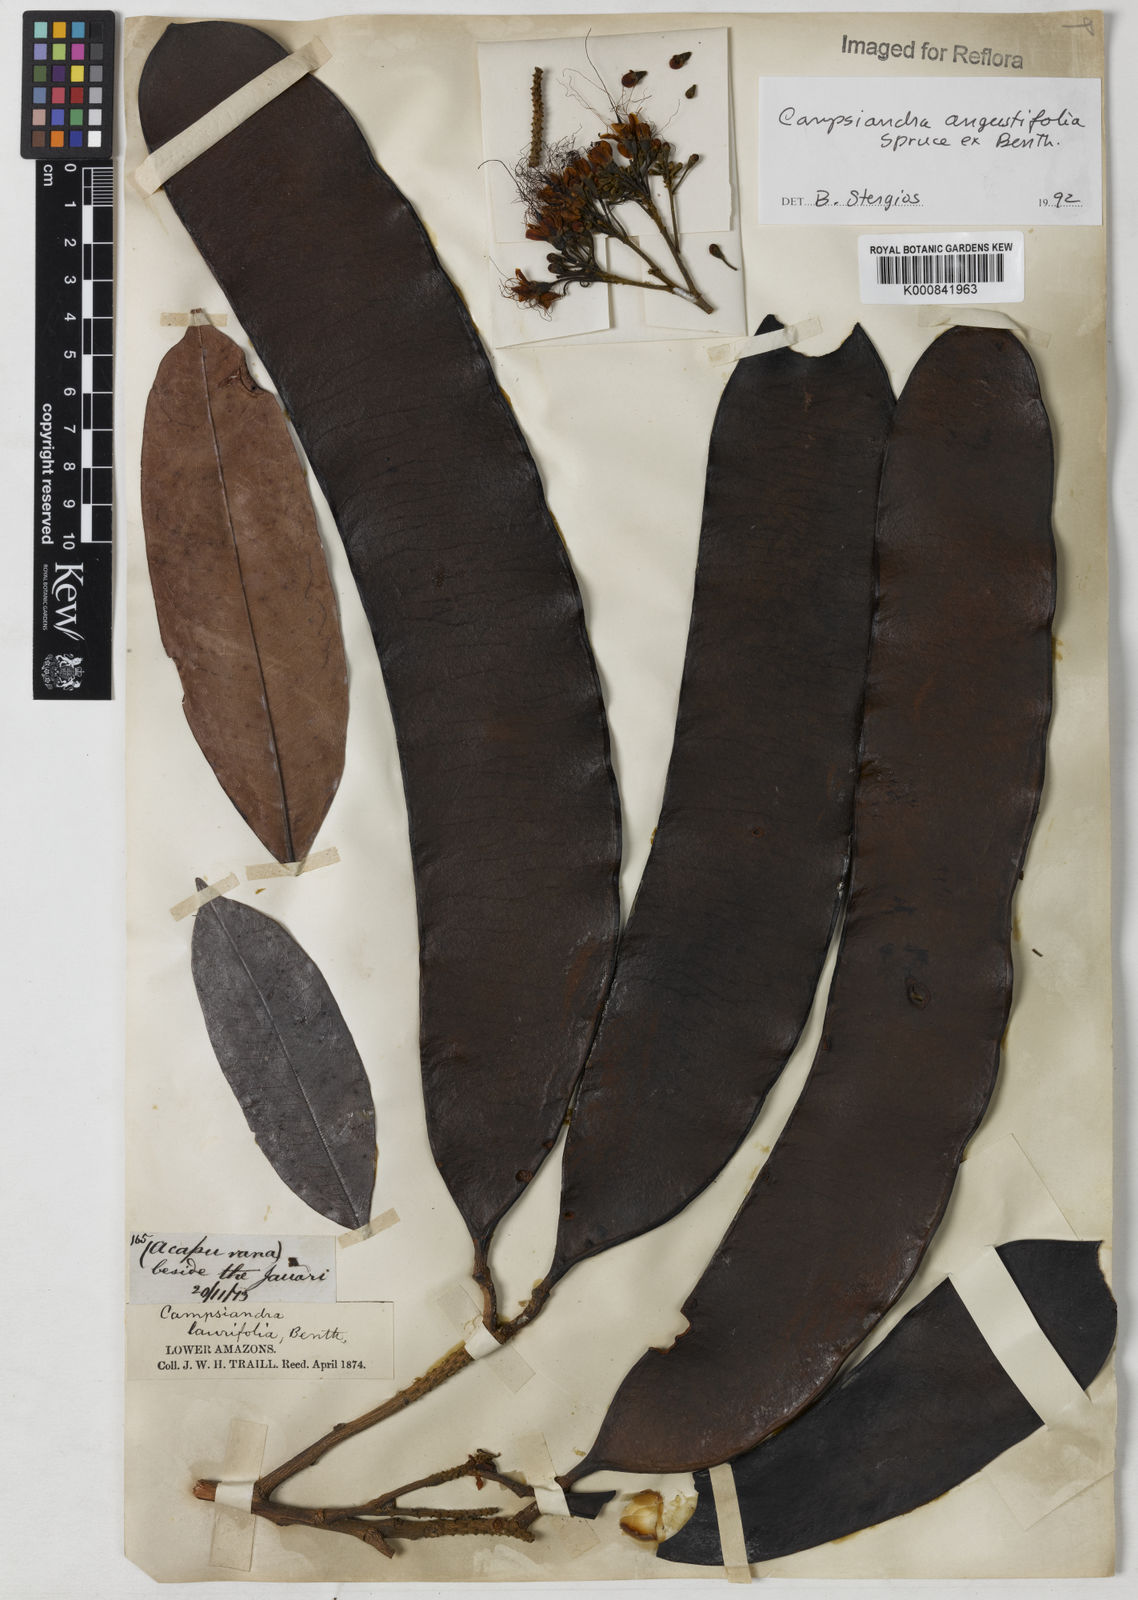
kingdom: Plantae
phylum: Tracheophyta
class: Magnoliopsida
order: Fabales
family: Fabaceae
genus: Campsiandra
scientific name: Campsiandra
